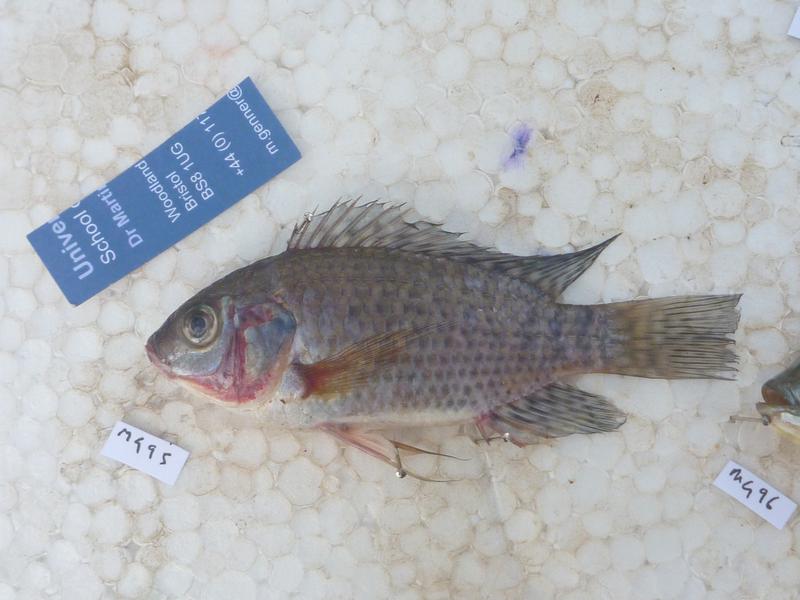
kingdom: Animalia
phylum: Chordata
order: Perciformes
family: Cichlidae
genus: Oreochromis
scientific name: Oreochromis leucostictus
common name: Blue spotted tilapia
